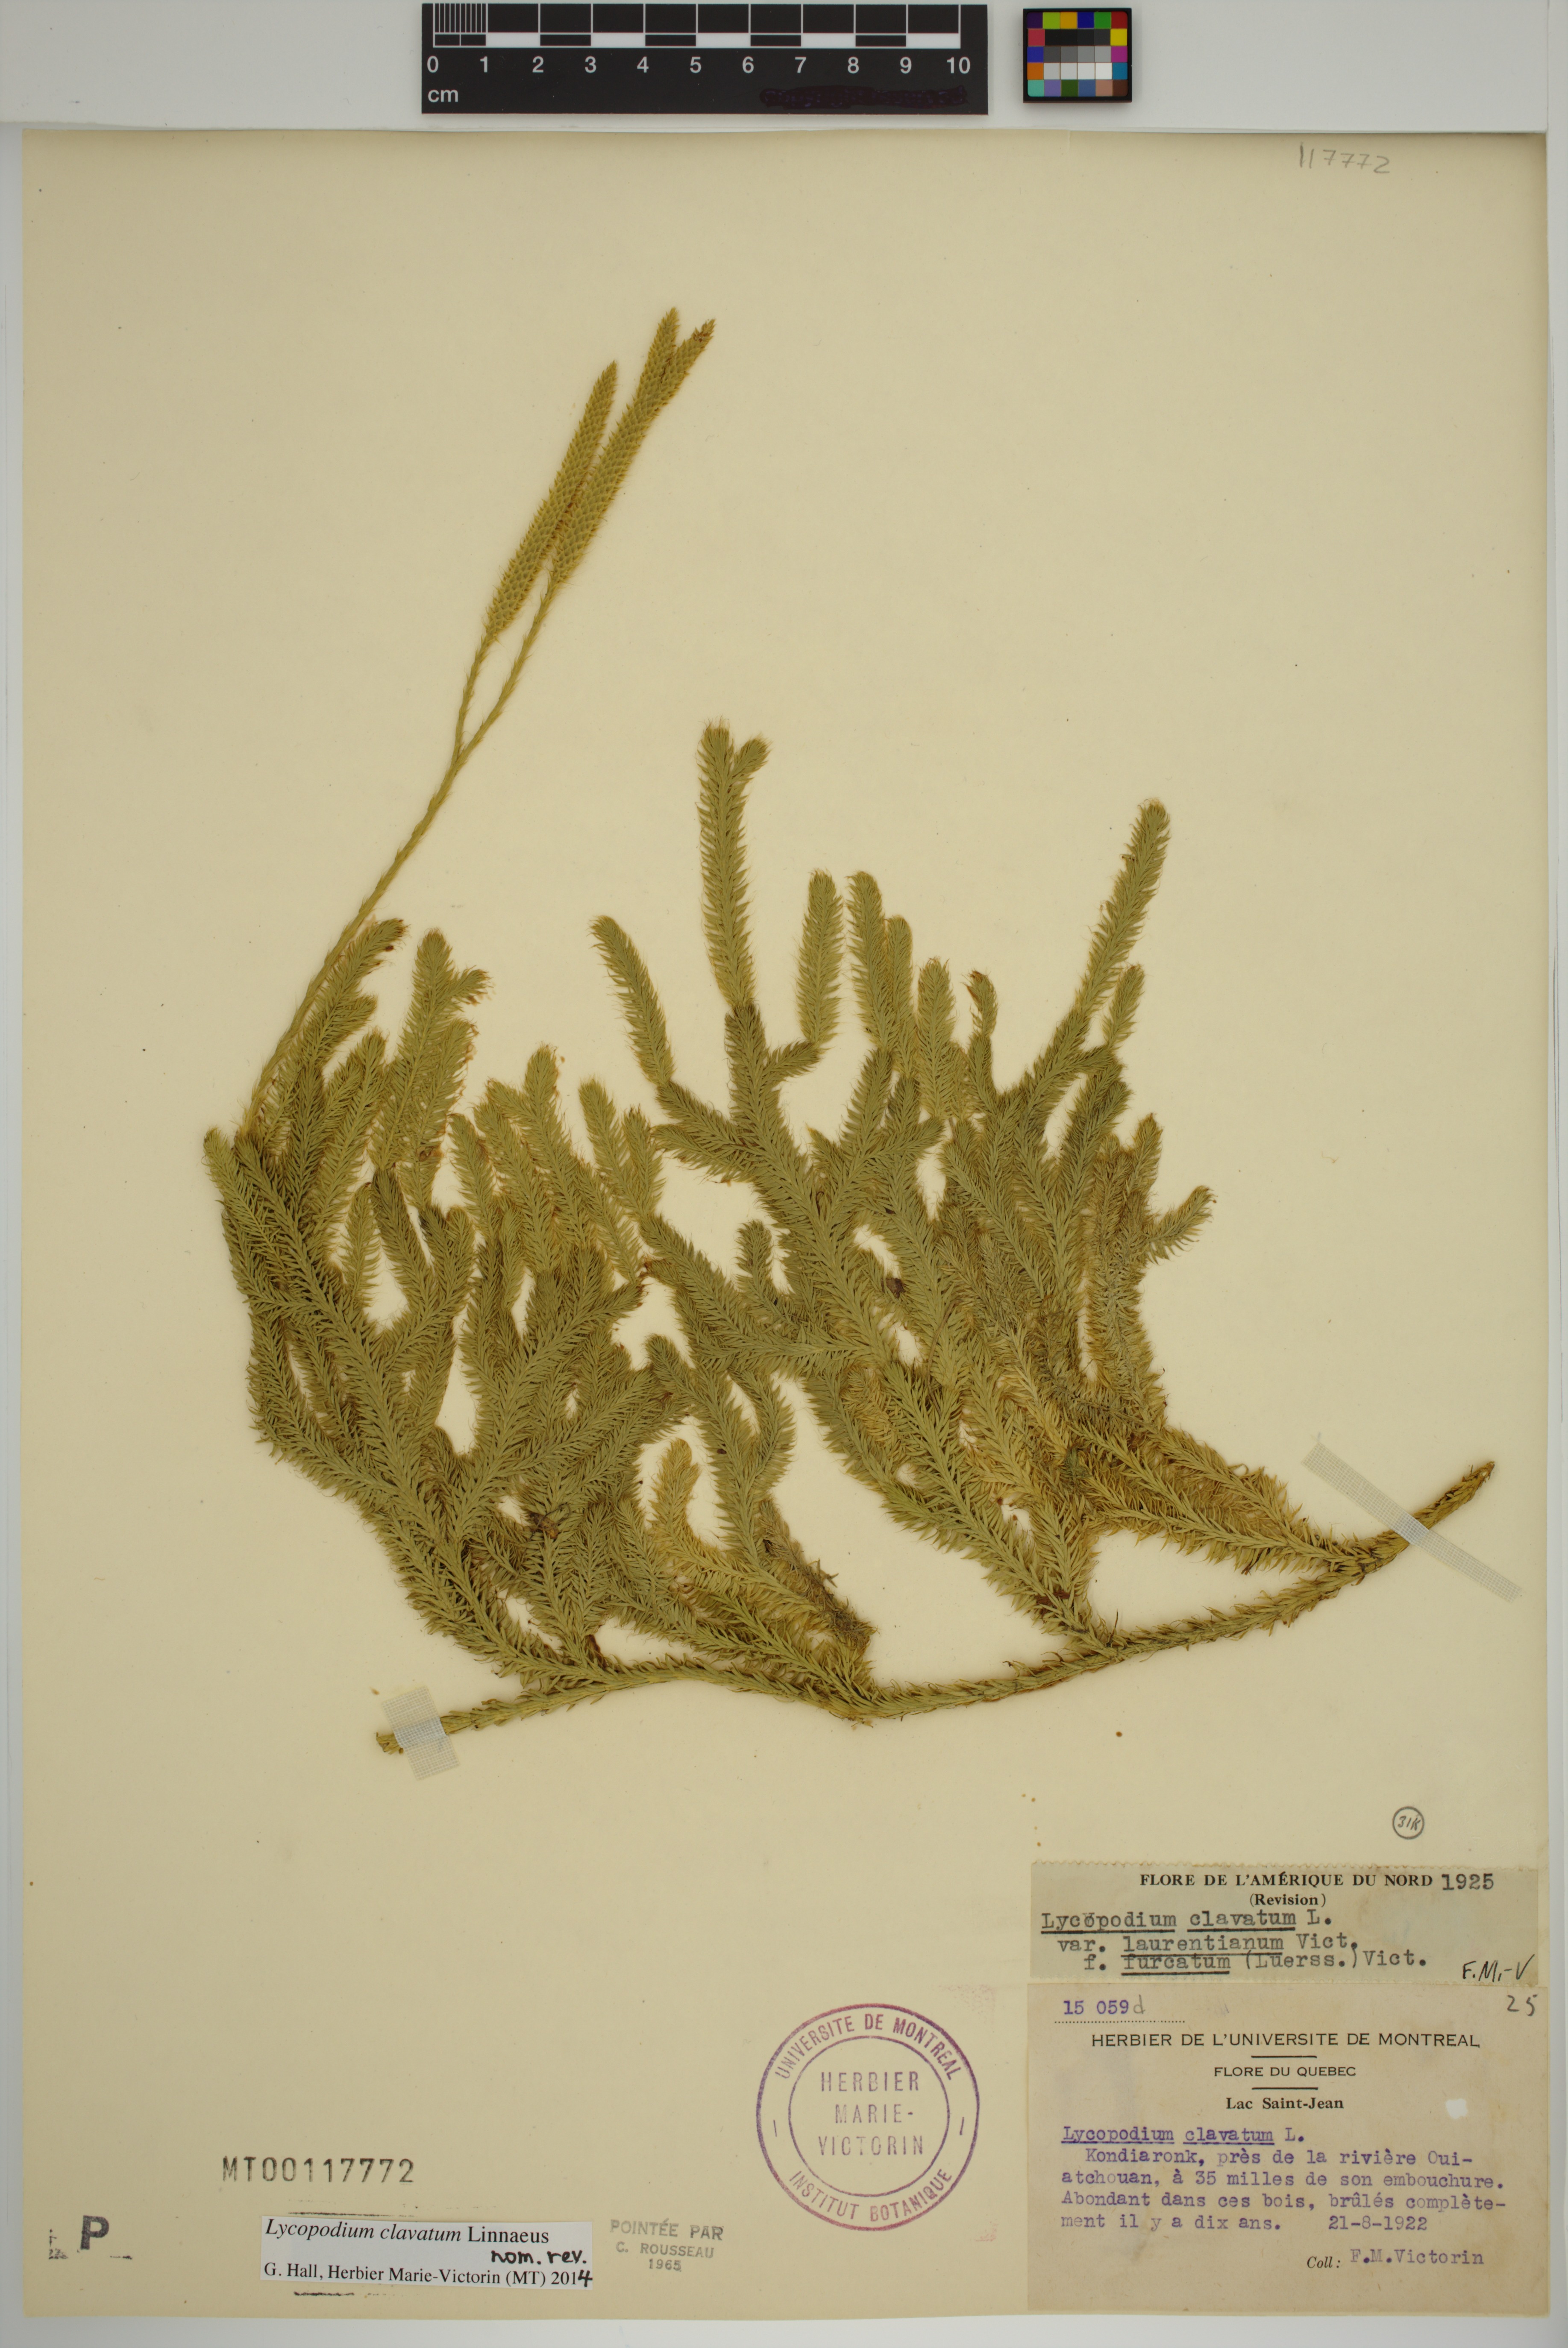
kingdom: Plantae
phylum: Tracheophyta
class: Lycopodiopsida
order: Lycopodiales
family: Lycopodiaceae
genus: Lycopodium
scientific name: Lycopodium clavatum
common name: Stag's-horn clubmoss
